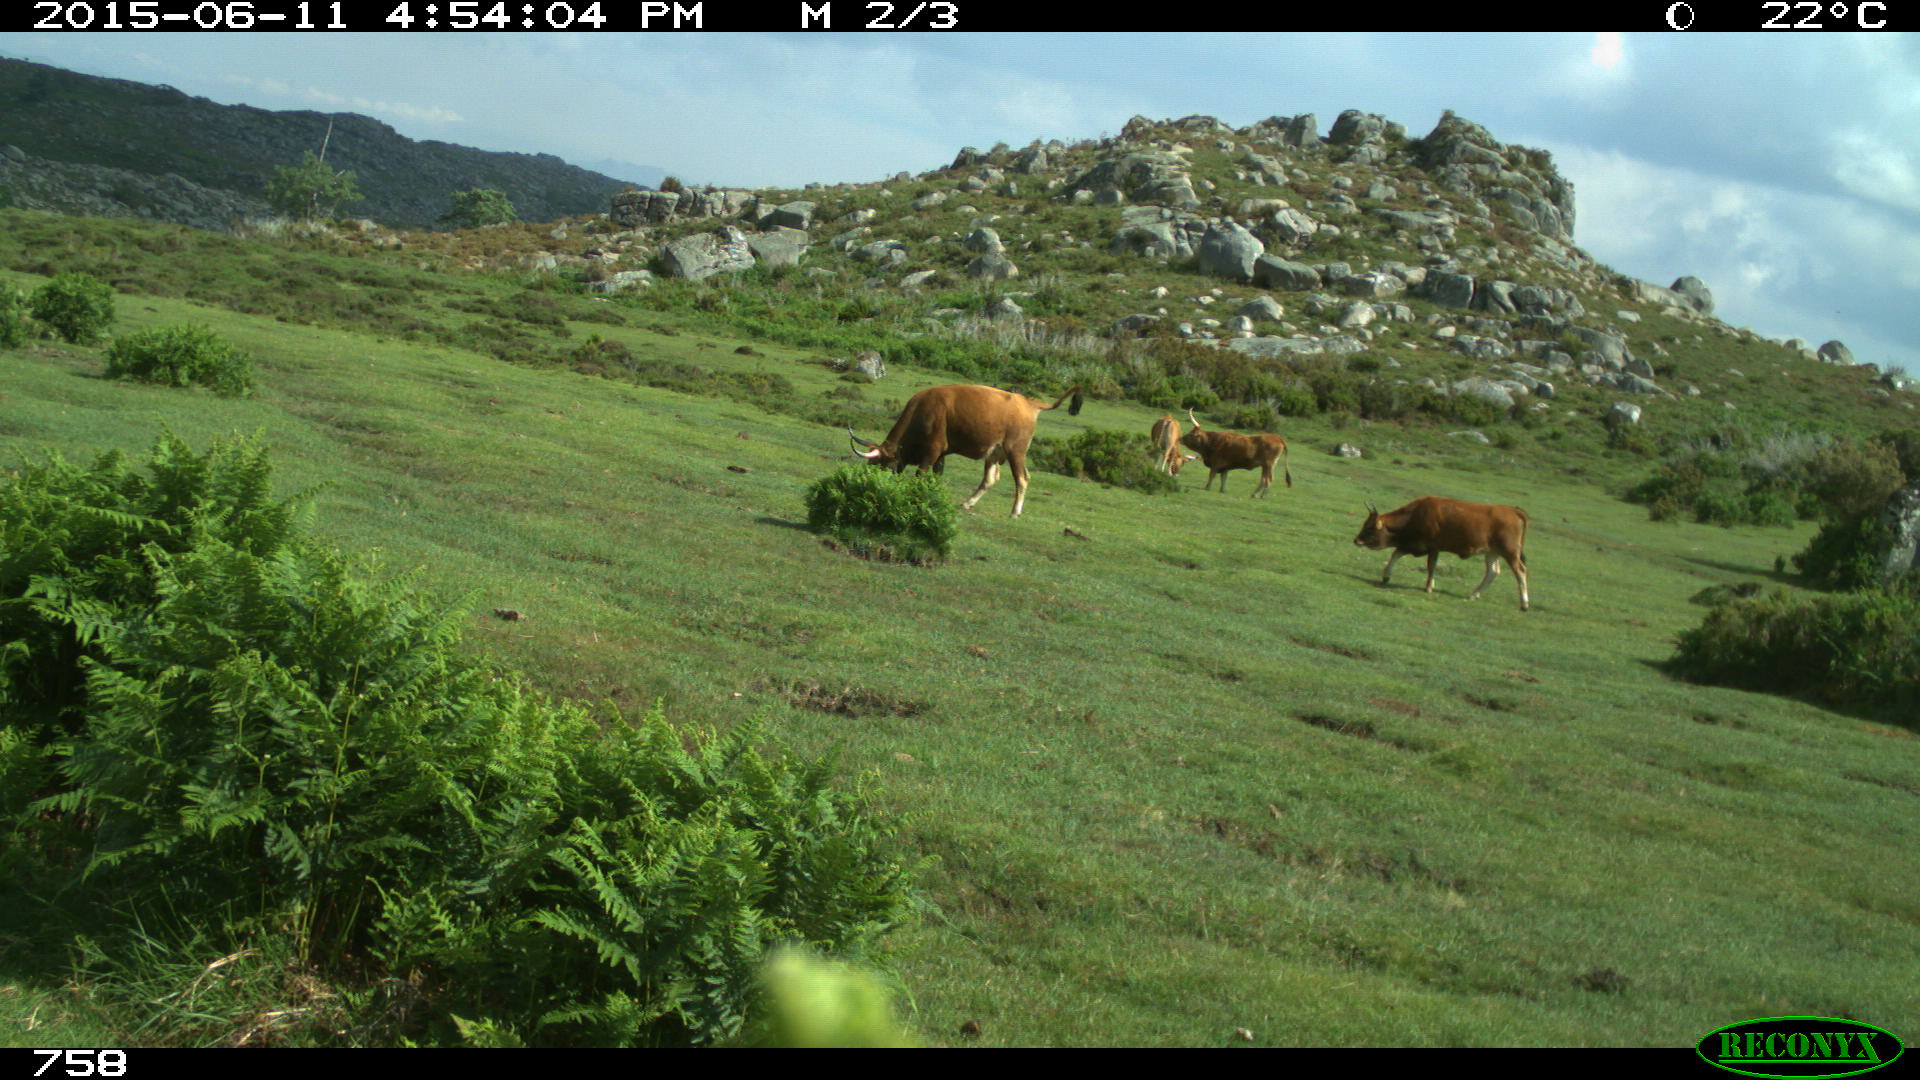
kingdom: Animalia
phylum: Chordata
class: Mammalia
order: Artiodactyla
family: Bovidae
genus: Bos
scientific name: Bos taurus
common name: Domesticated cattle
